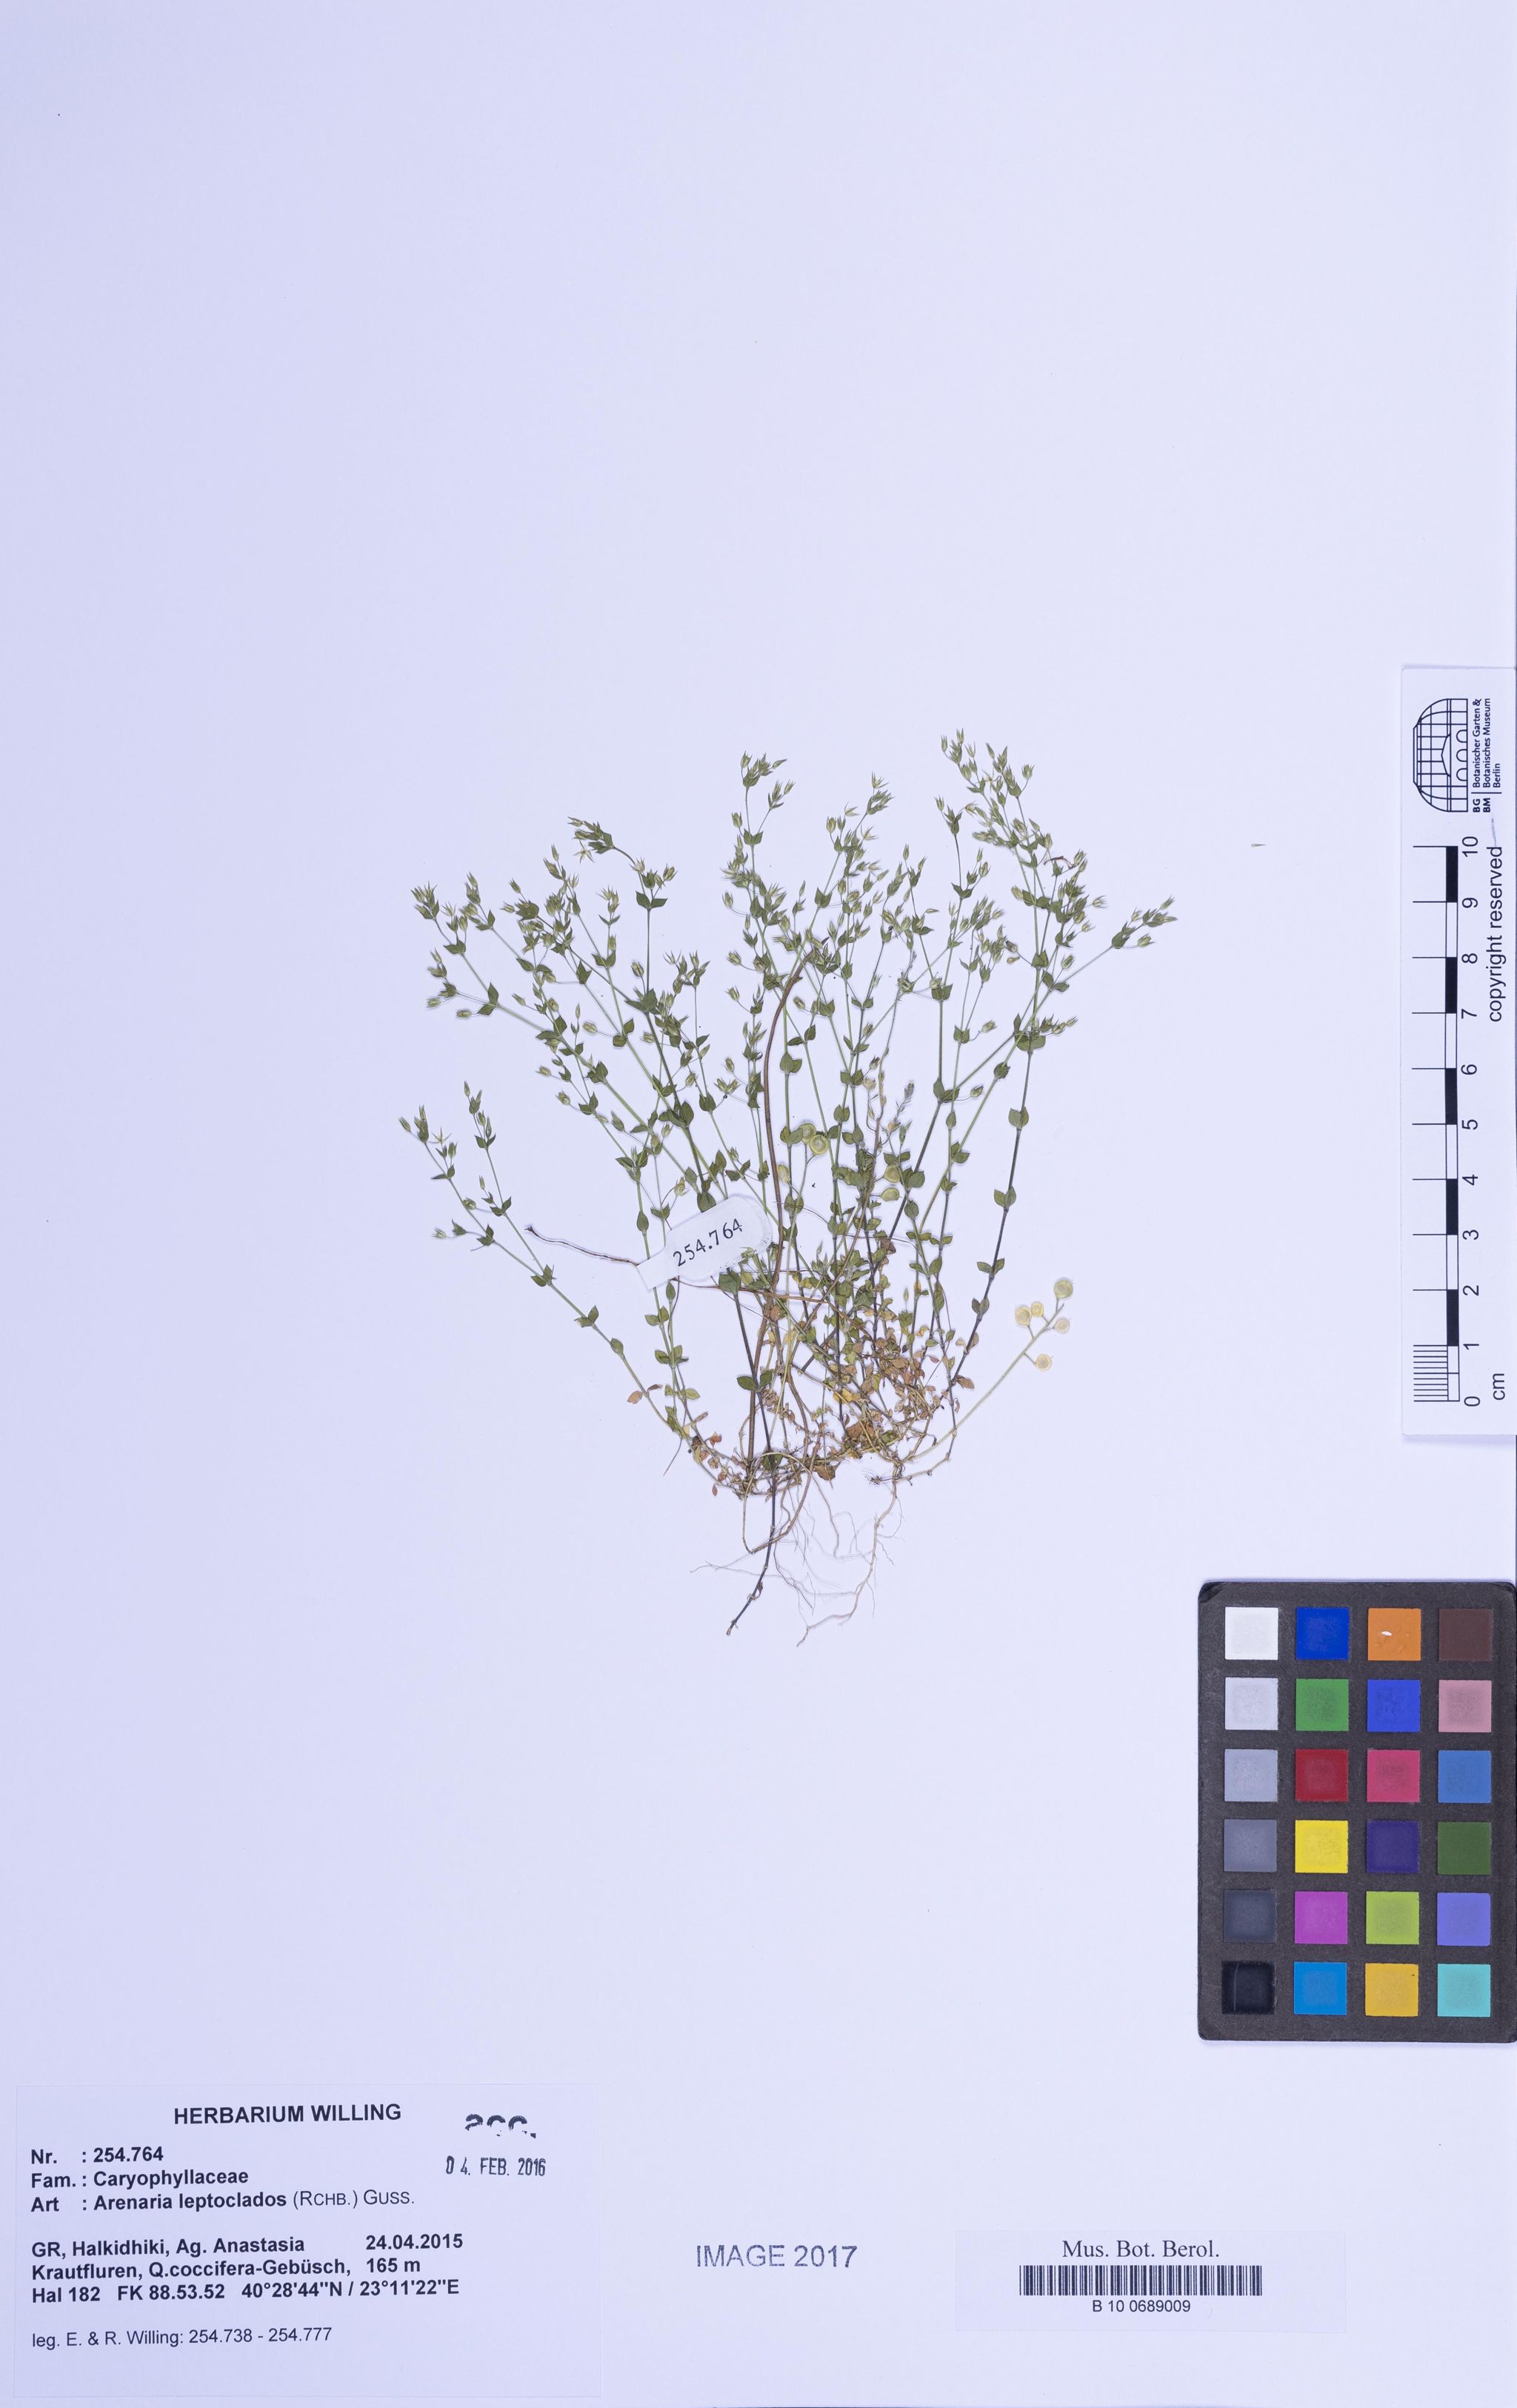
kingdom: Plantae
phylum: Tracheophyta
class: Magnoliopsida
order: Caryophyllales
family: Caryophyllaceae
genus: Arenaria
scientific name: Arenaria leptoclados
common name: Thyme-leaved sandwort
